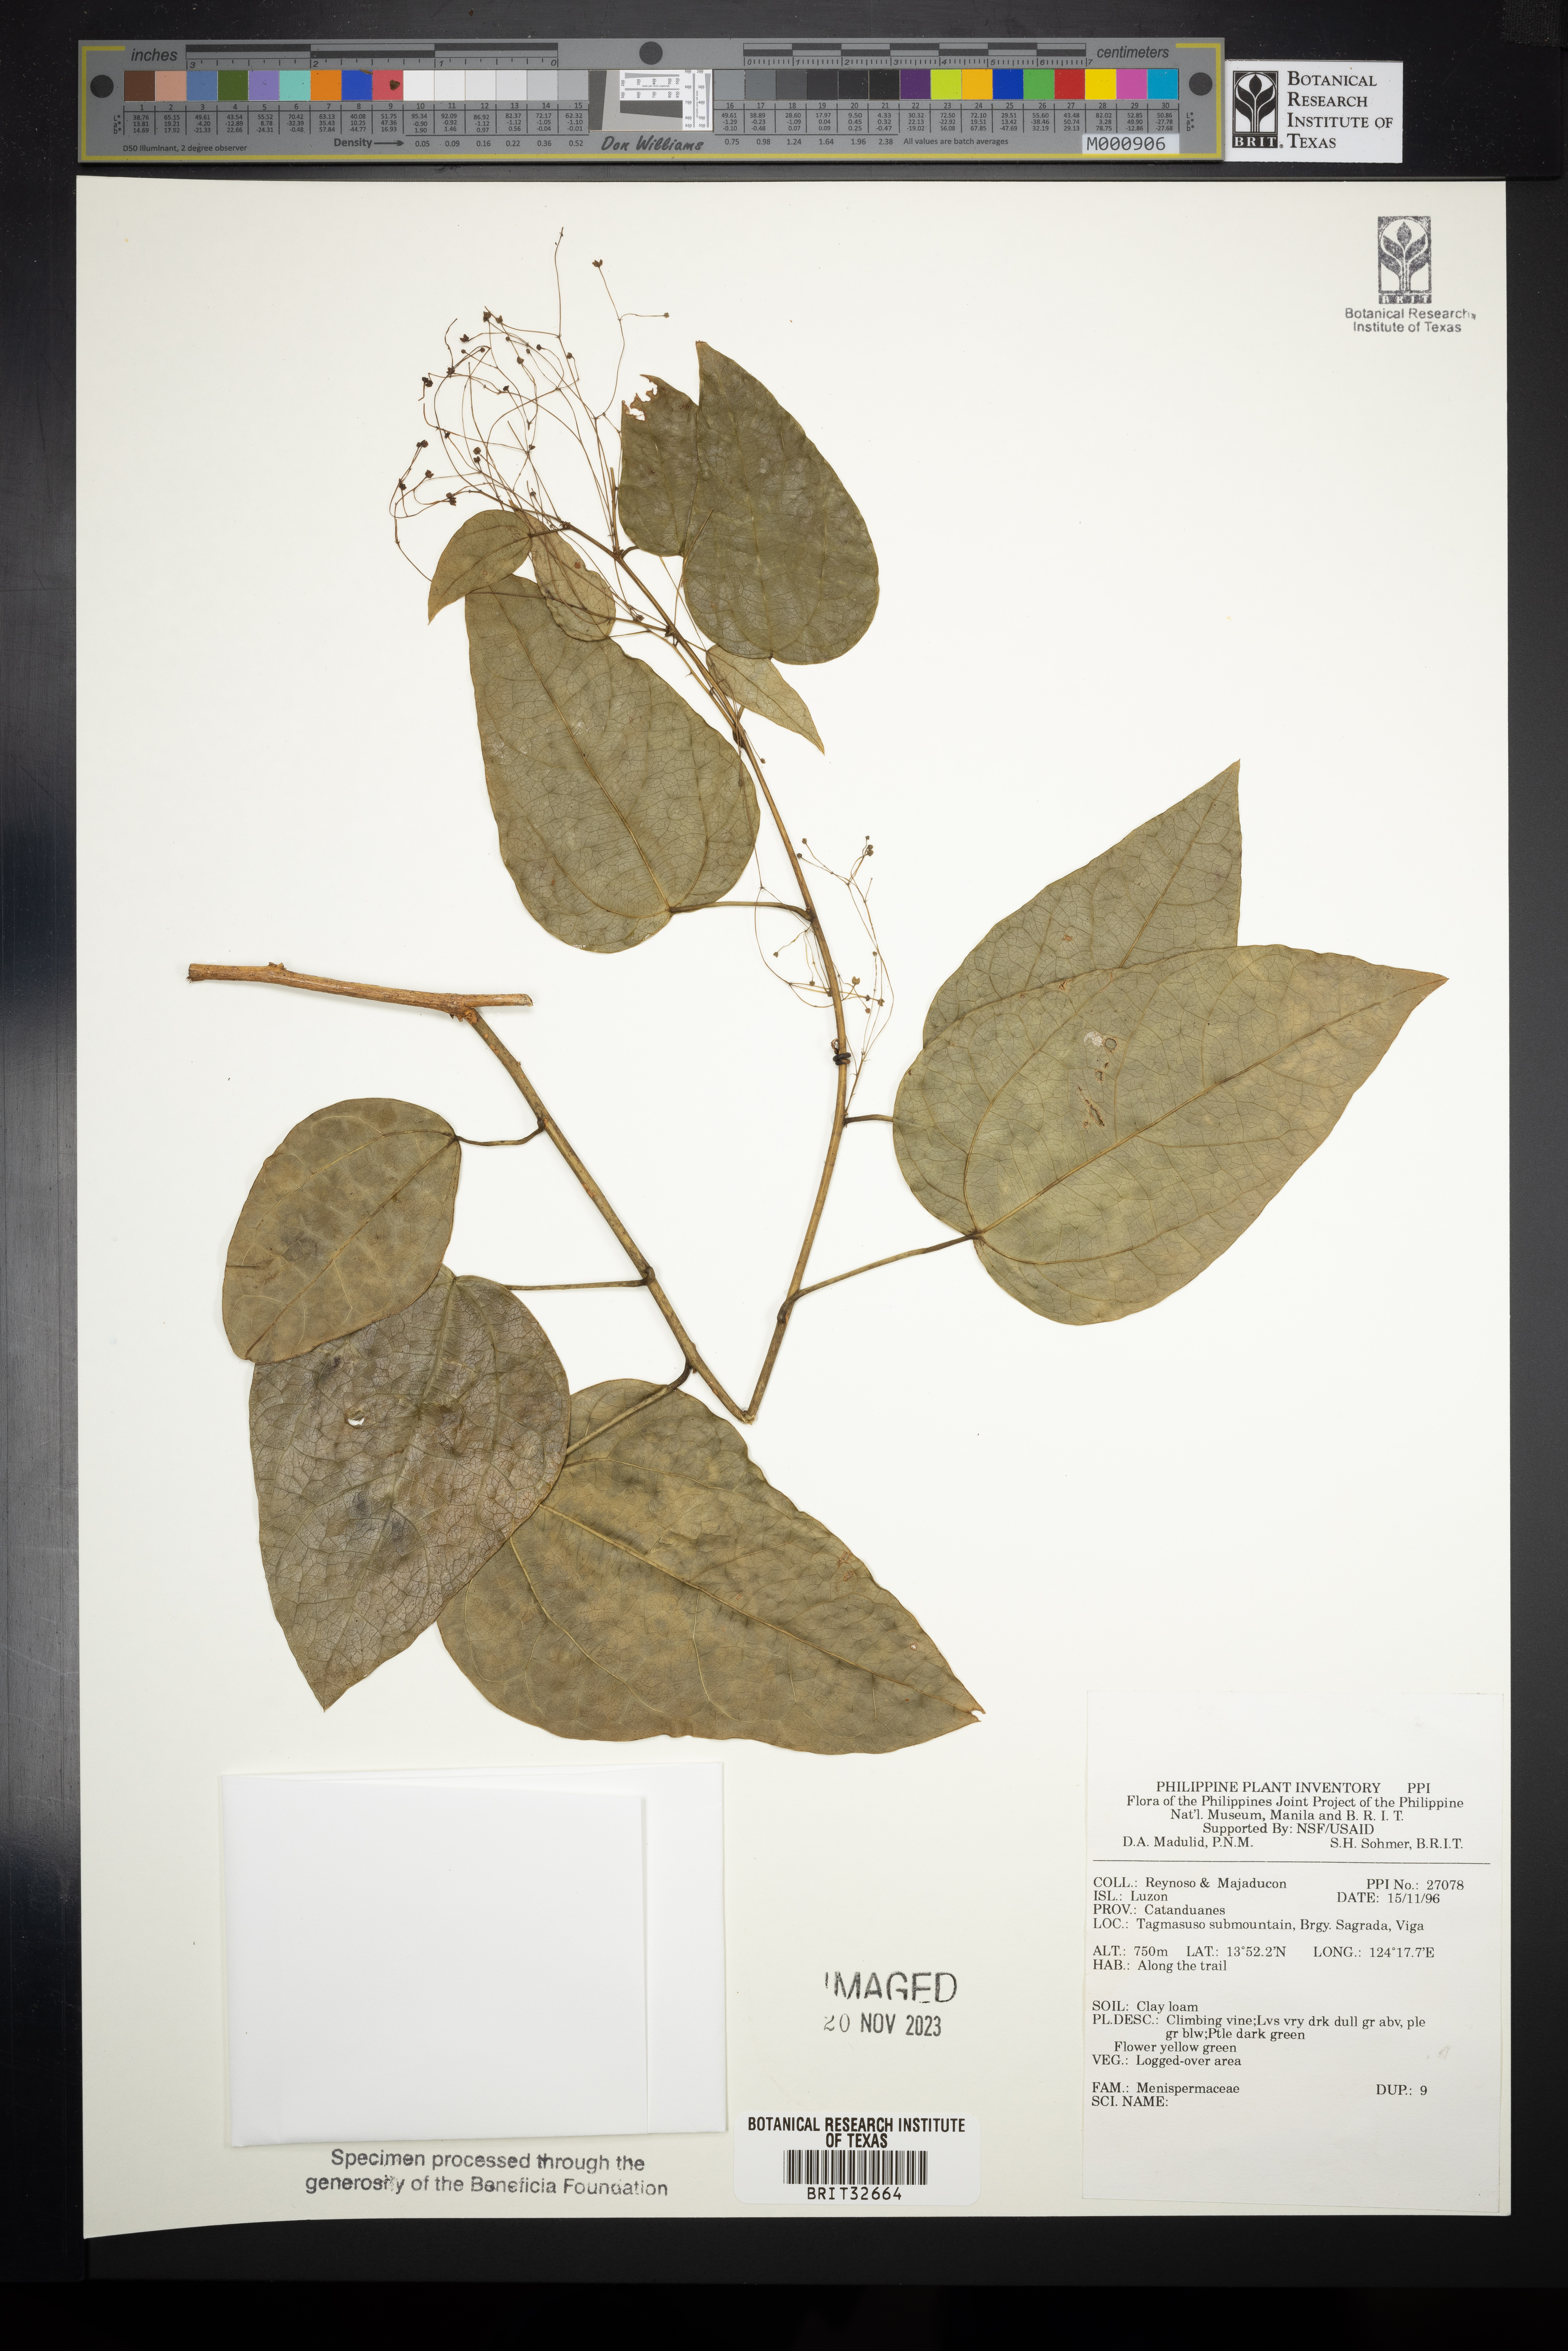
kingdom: Plantae
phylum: Tracheophyta
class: Magnoliopsida
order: Ranunculales
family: Menispermaceae
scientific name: Menispermaceae
